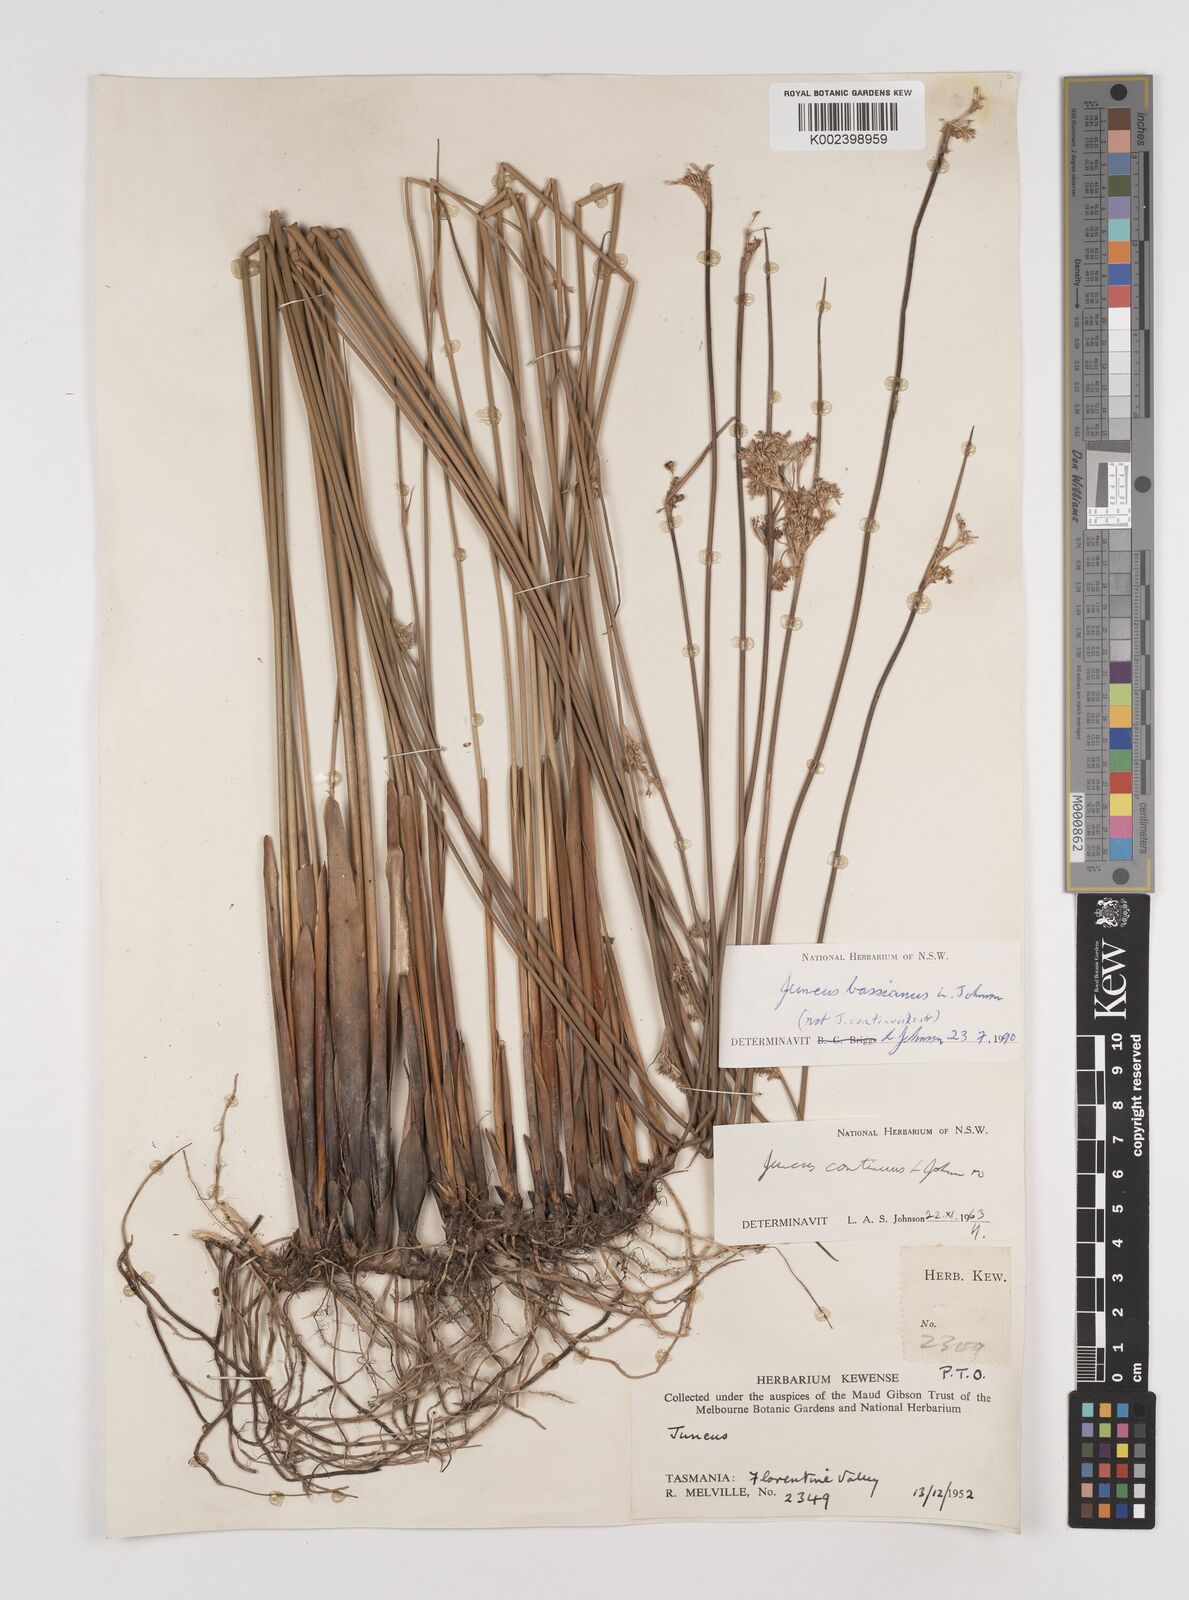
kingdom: Plantae
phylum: Tracheophyta
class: Liliopsida
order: Poales
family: Juncaceae
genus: Juncus
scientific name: Juncus bassianus
